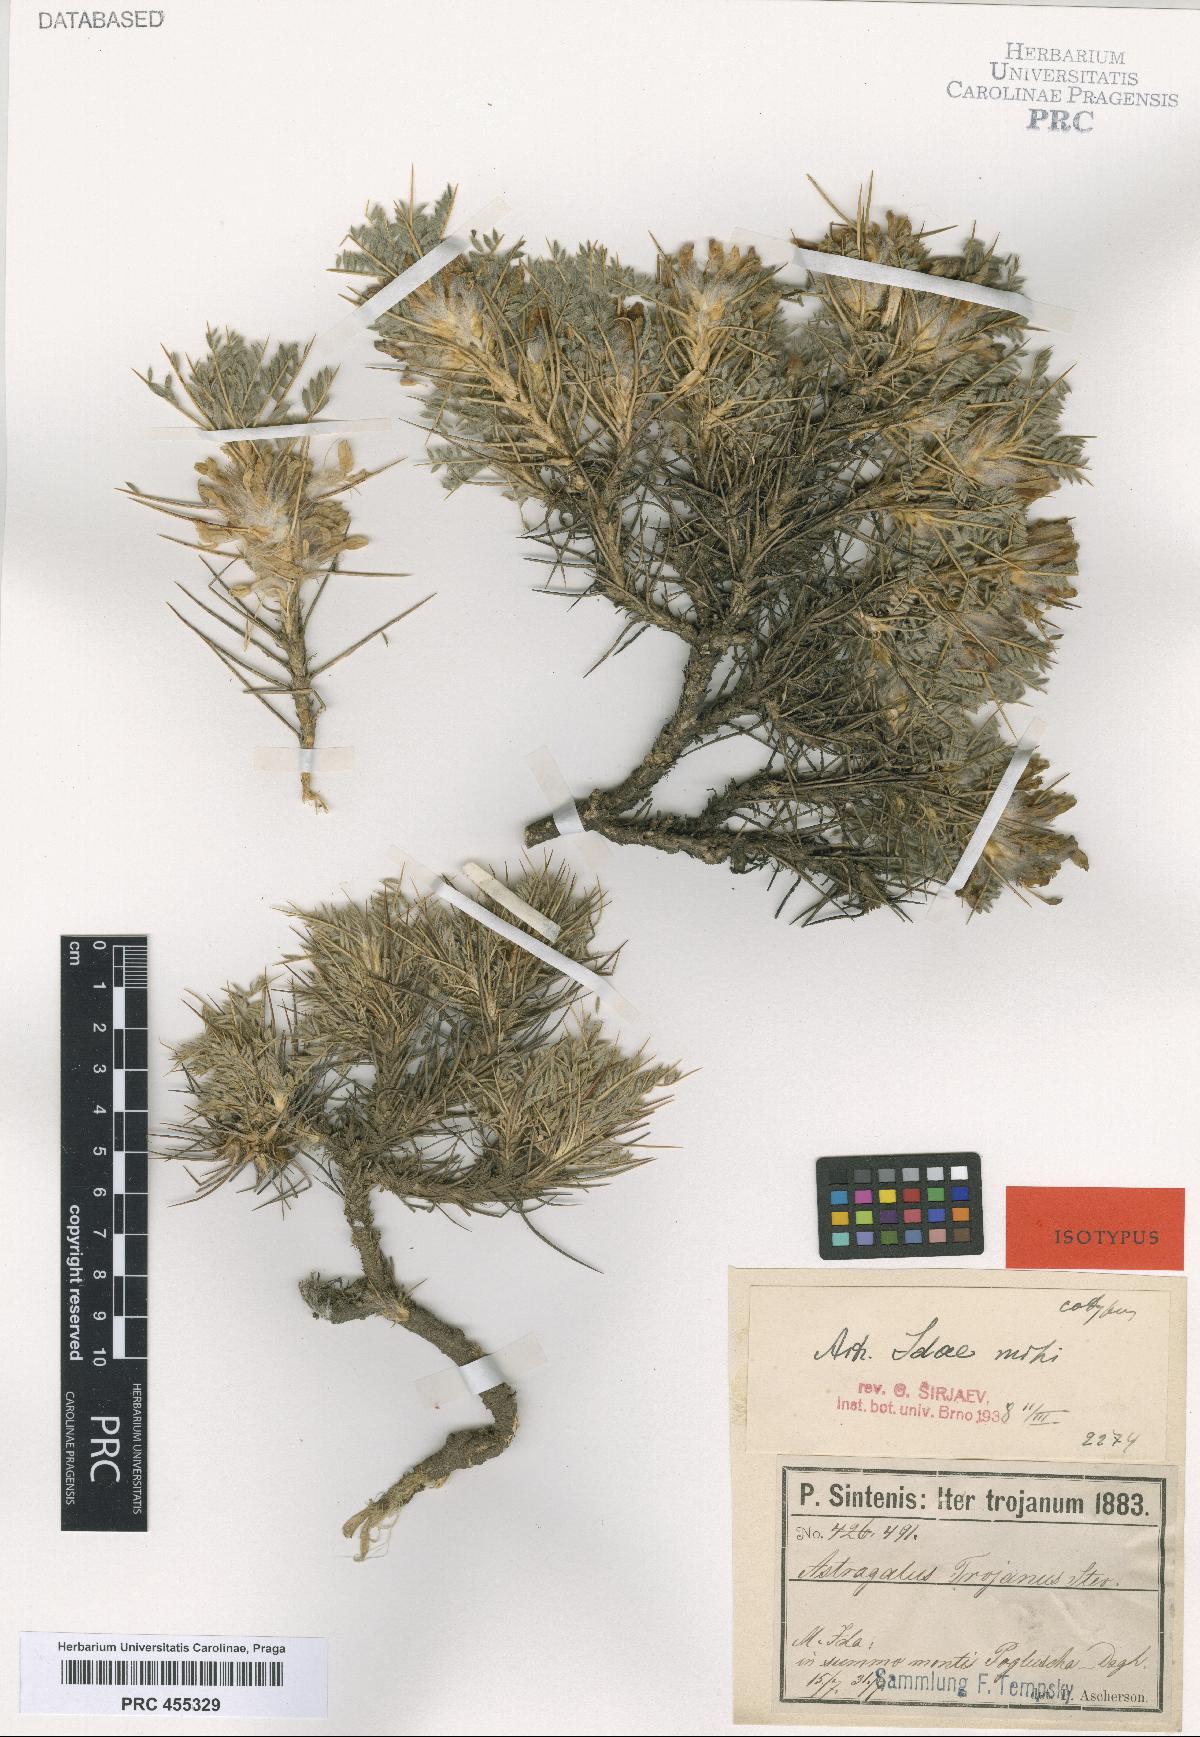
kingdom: Plantae
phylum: Tracheophyta
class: Magnoliopsida
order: Fabales
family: Fabaceae
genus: Astragalus
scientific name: Astragalus thracicus
